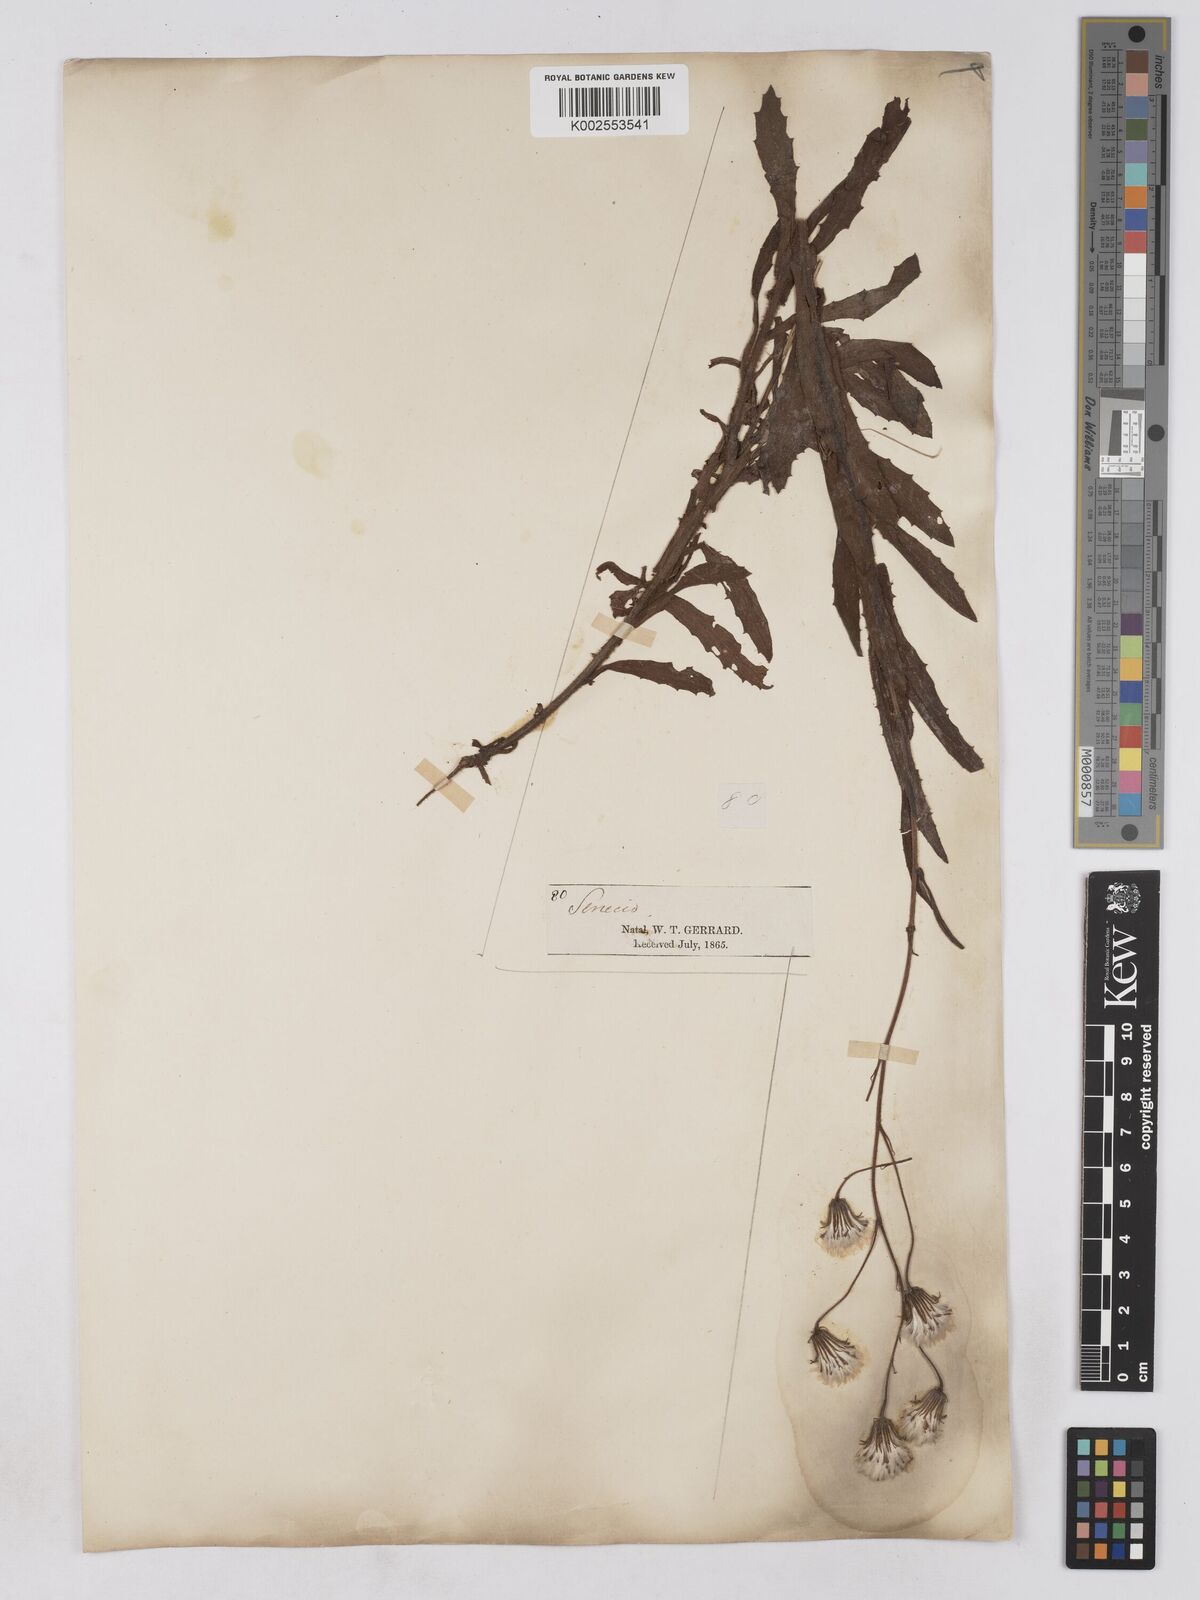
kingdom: Plantae
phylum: Tracheophyta
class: Magnoliopsida
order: Asterales
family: Asteraceae
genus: Senecio
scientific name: Senecio sandersonii
